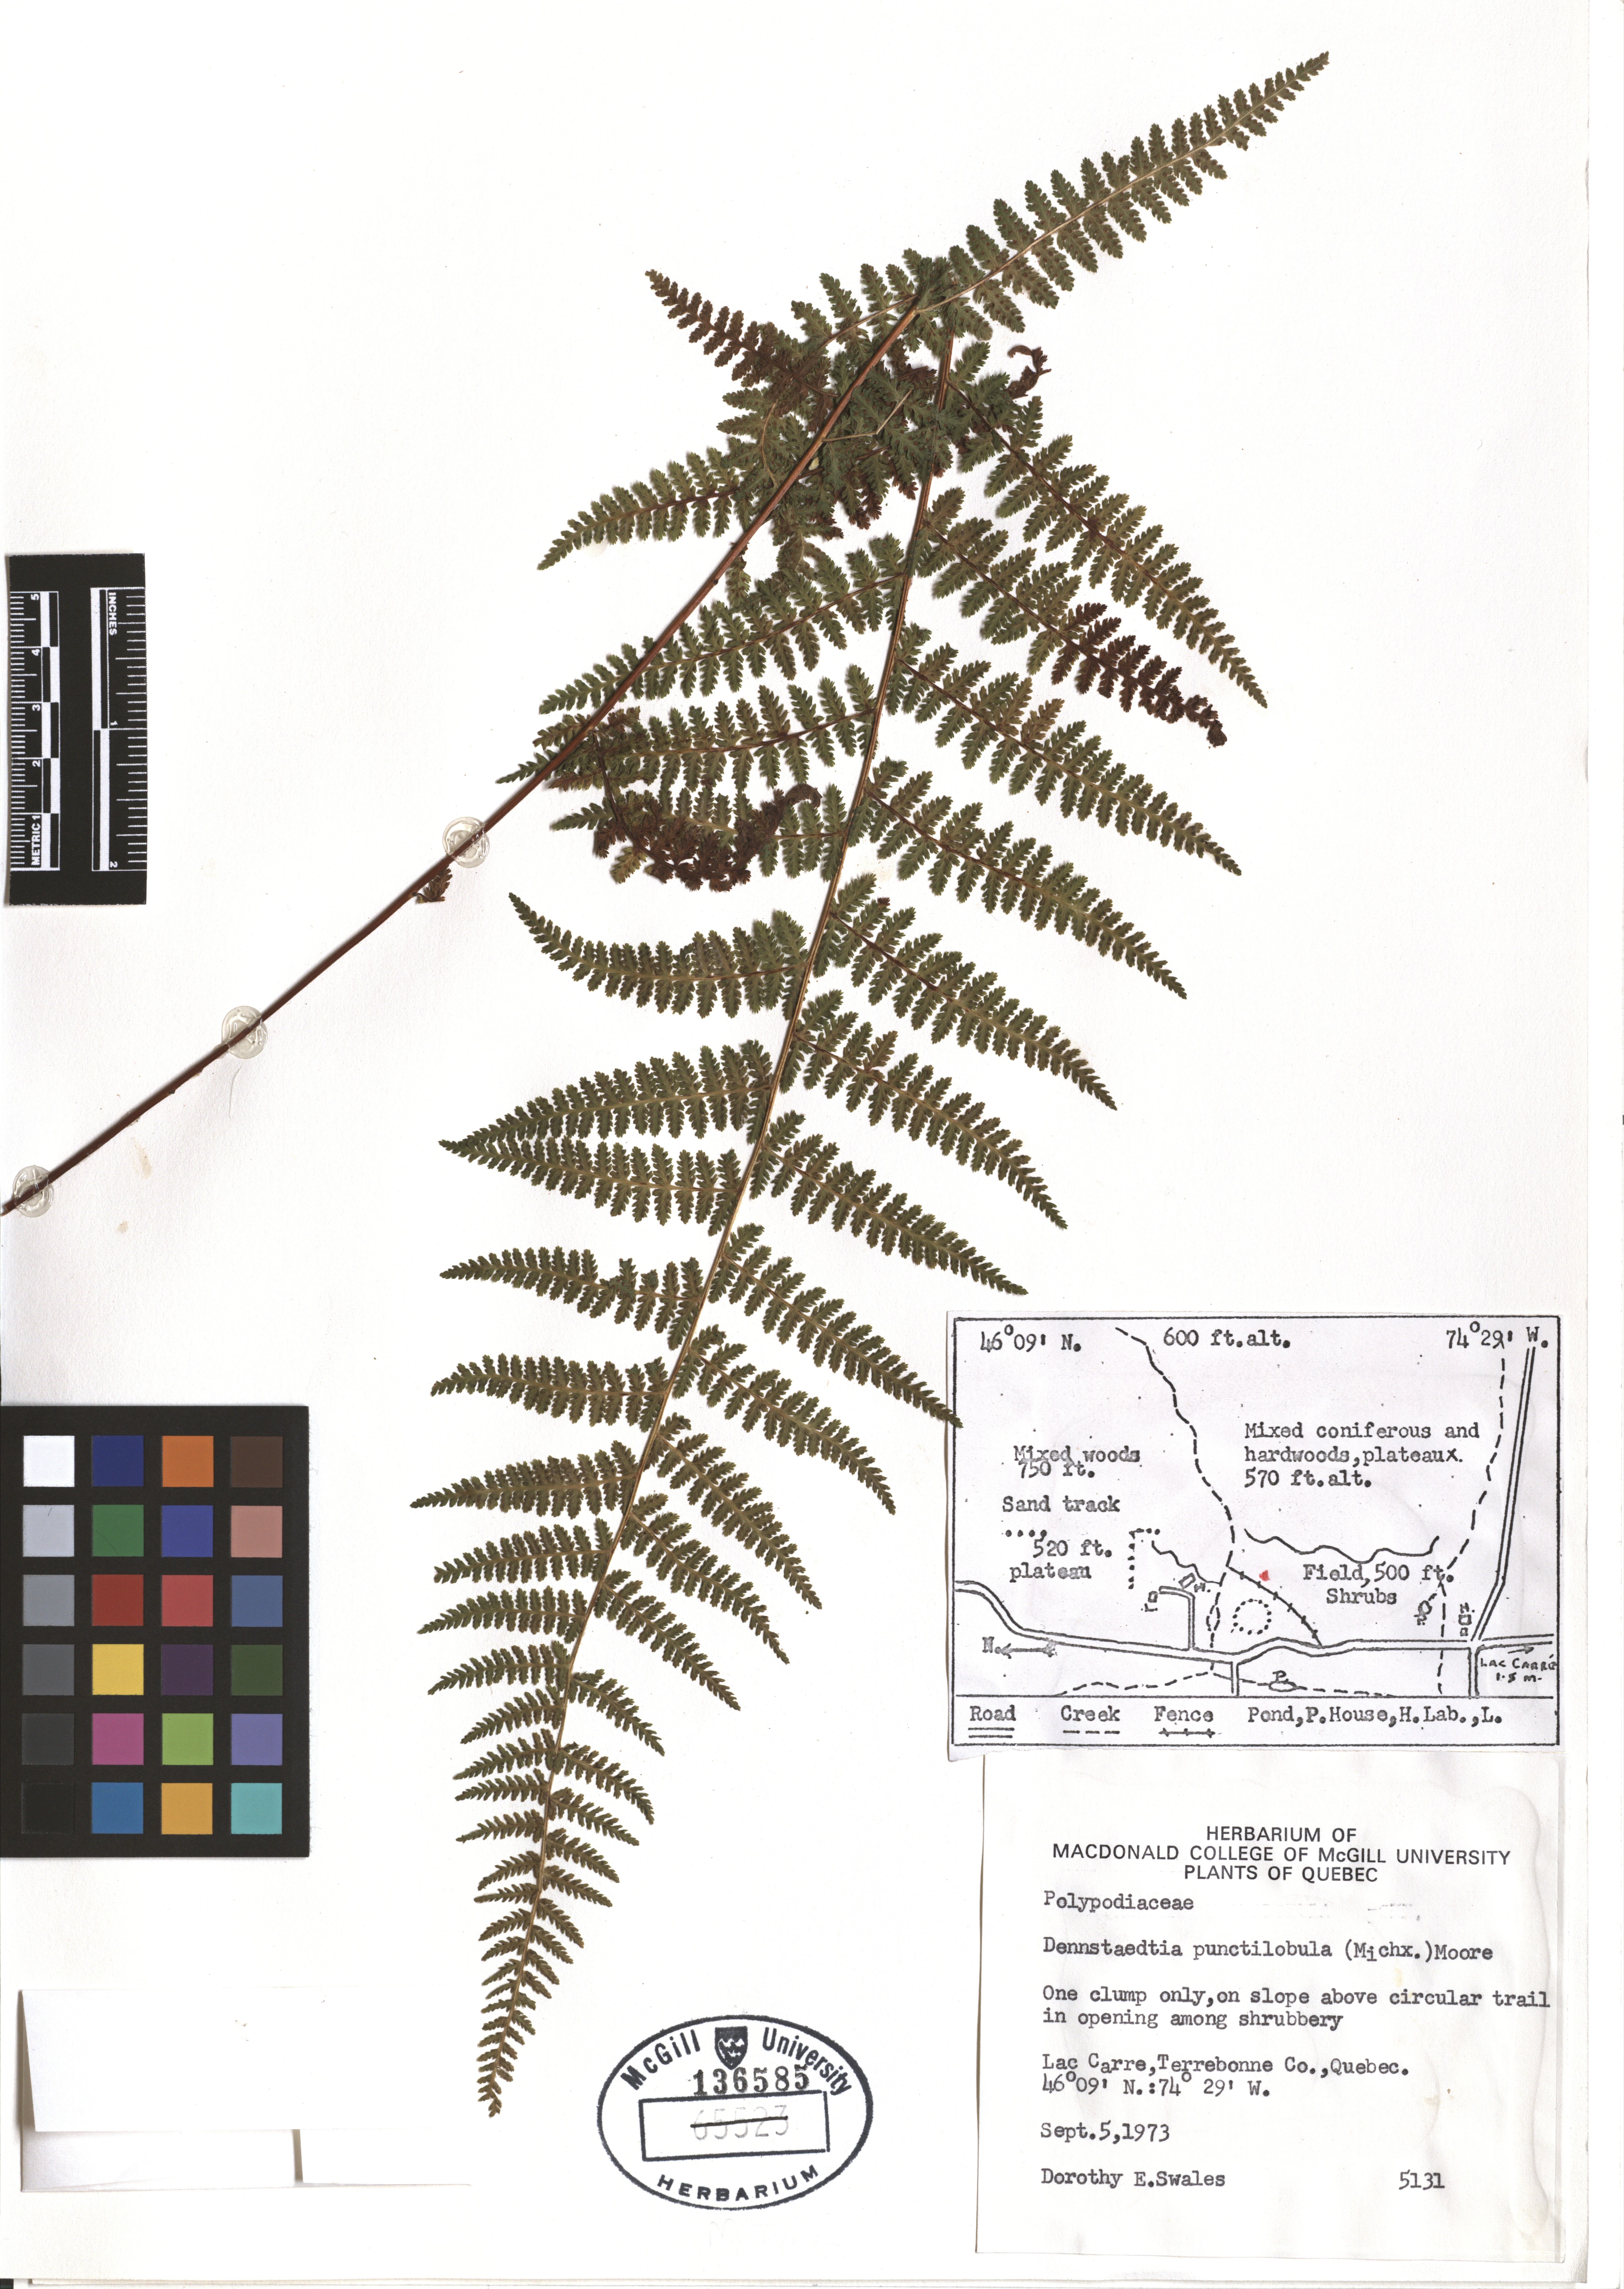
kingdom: Plantae
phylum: Tracheophyta
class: Polypodiopsida
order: Polypodiales
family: Dennstaedtiaceae
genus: Sitobolium
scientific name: Sitobolium punctilobum
